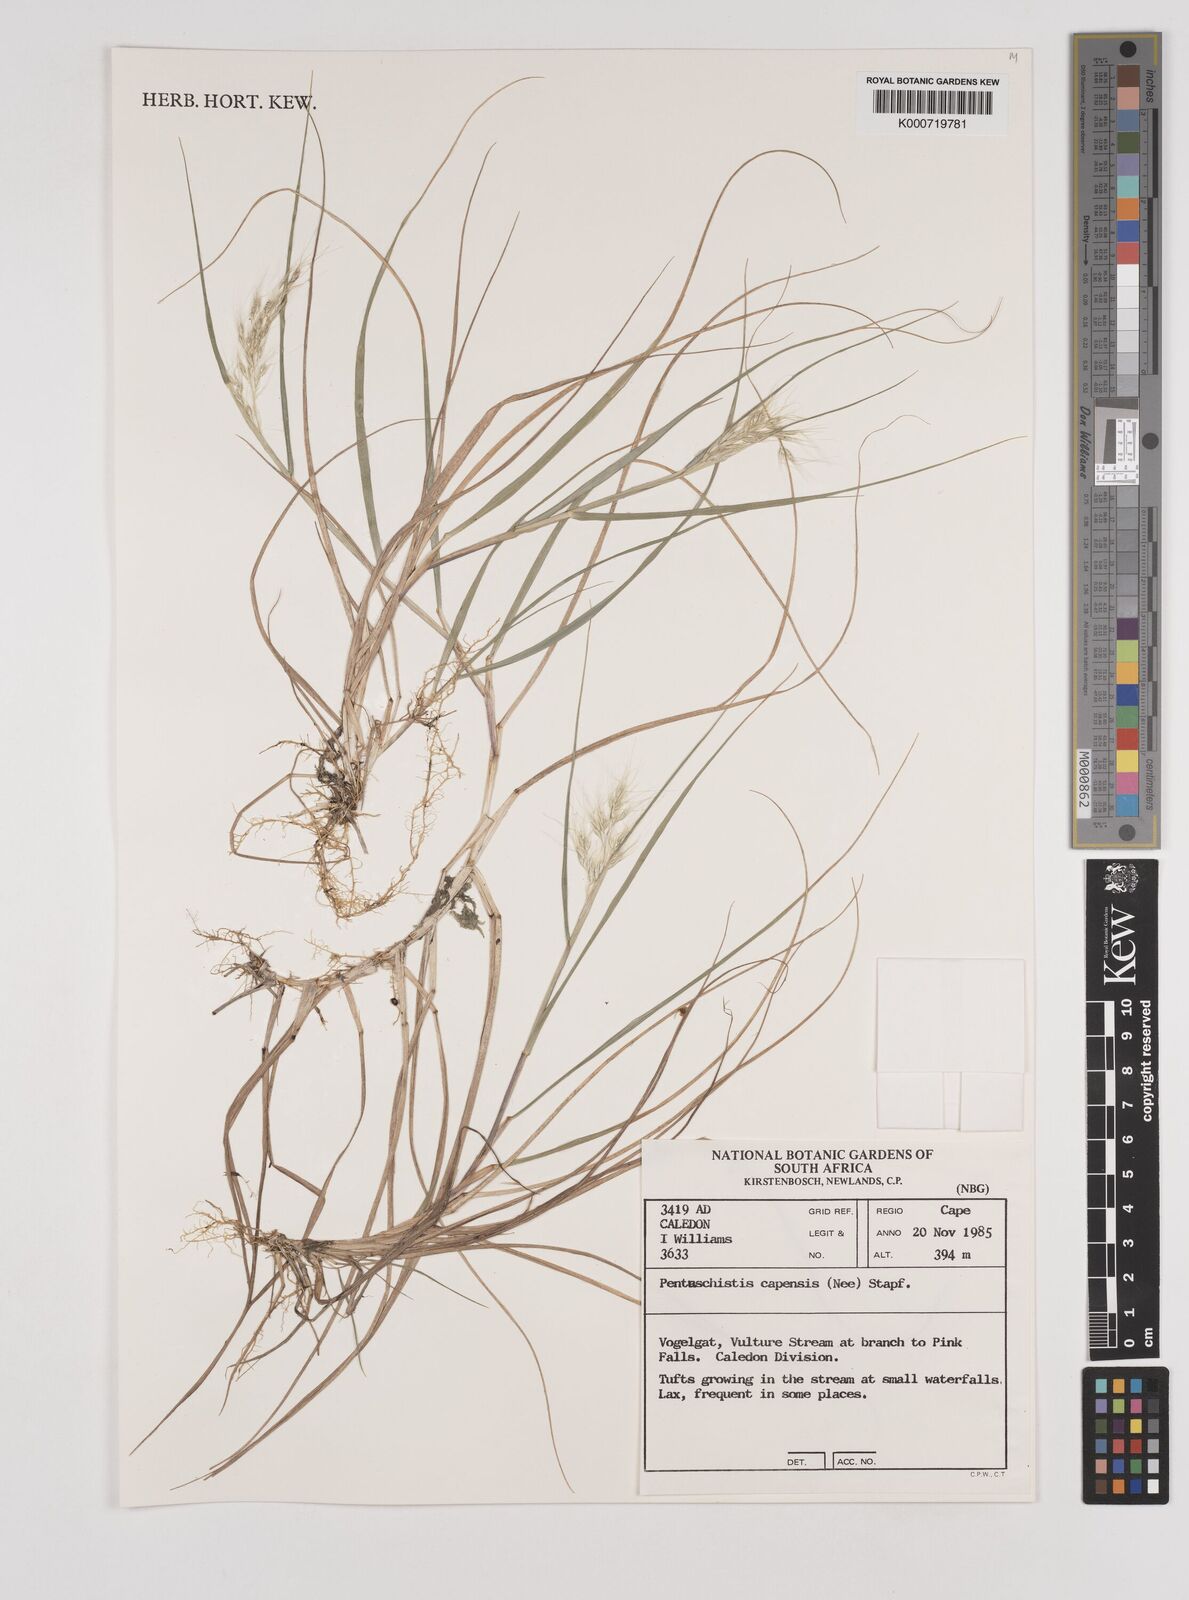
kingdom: Plantae
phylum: Tracheophyta
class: Liliopsida
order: Poales
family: Poaceae
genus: Pentameris
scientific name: Pentameris capensis
